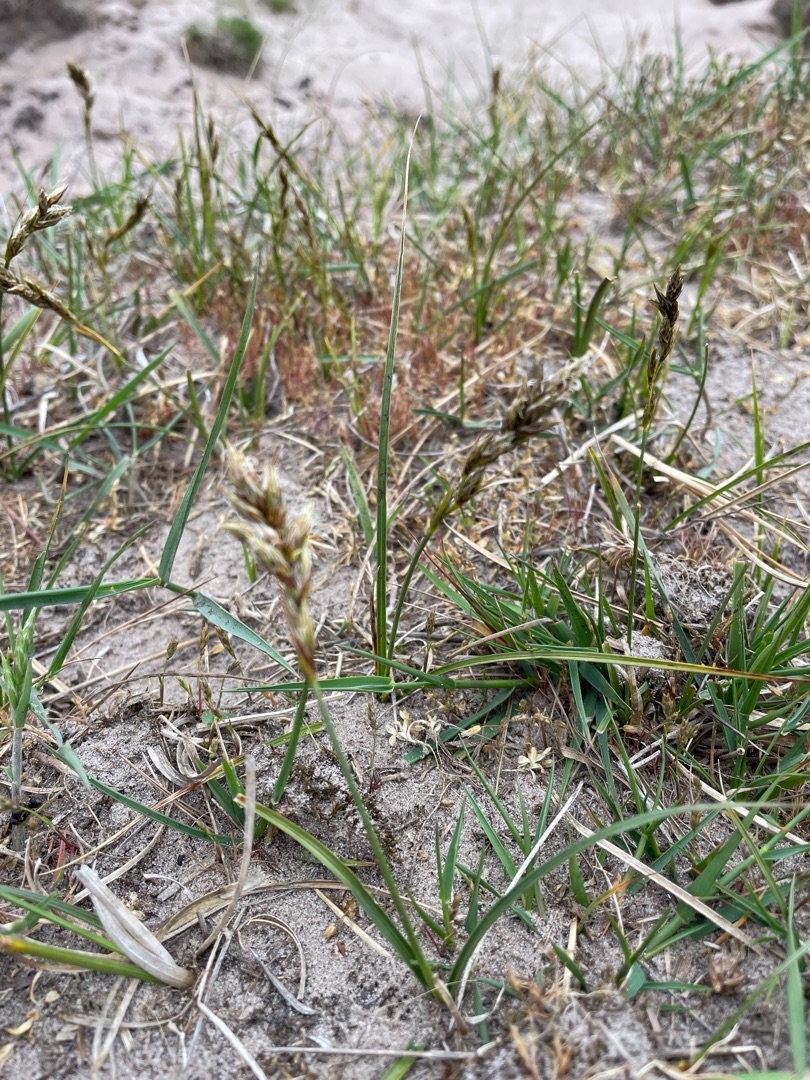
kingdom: Plantae
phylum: Tracheophyta
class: Liliopsida
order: Poales
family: Cyperaceae
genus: Carex
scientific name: Carex arenaria
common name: Sand-star
